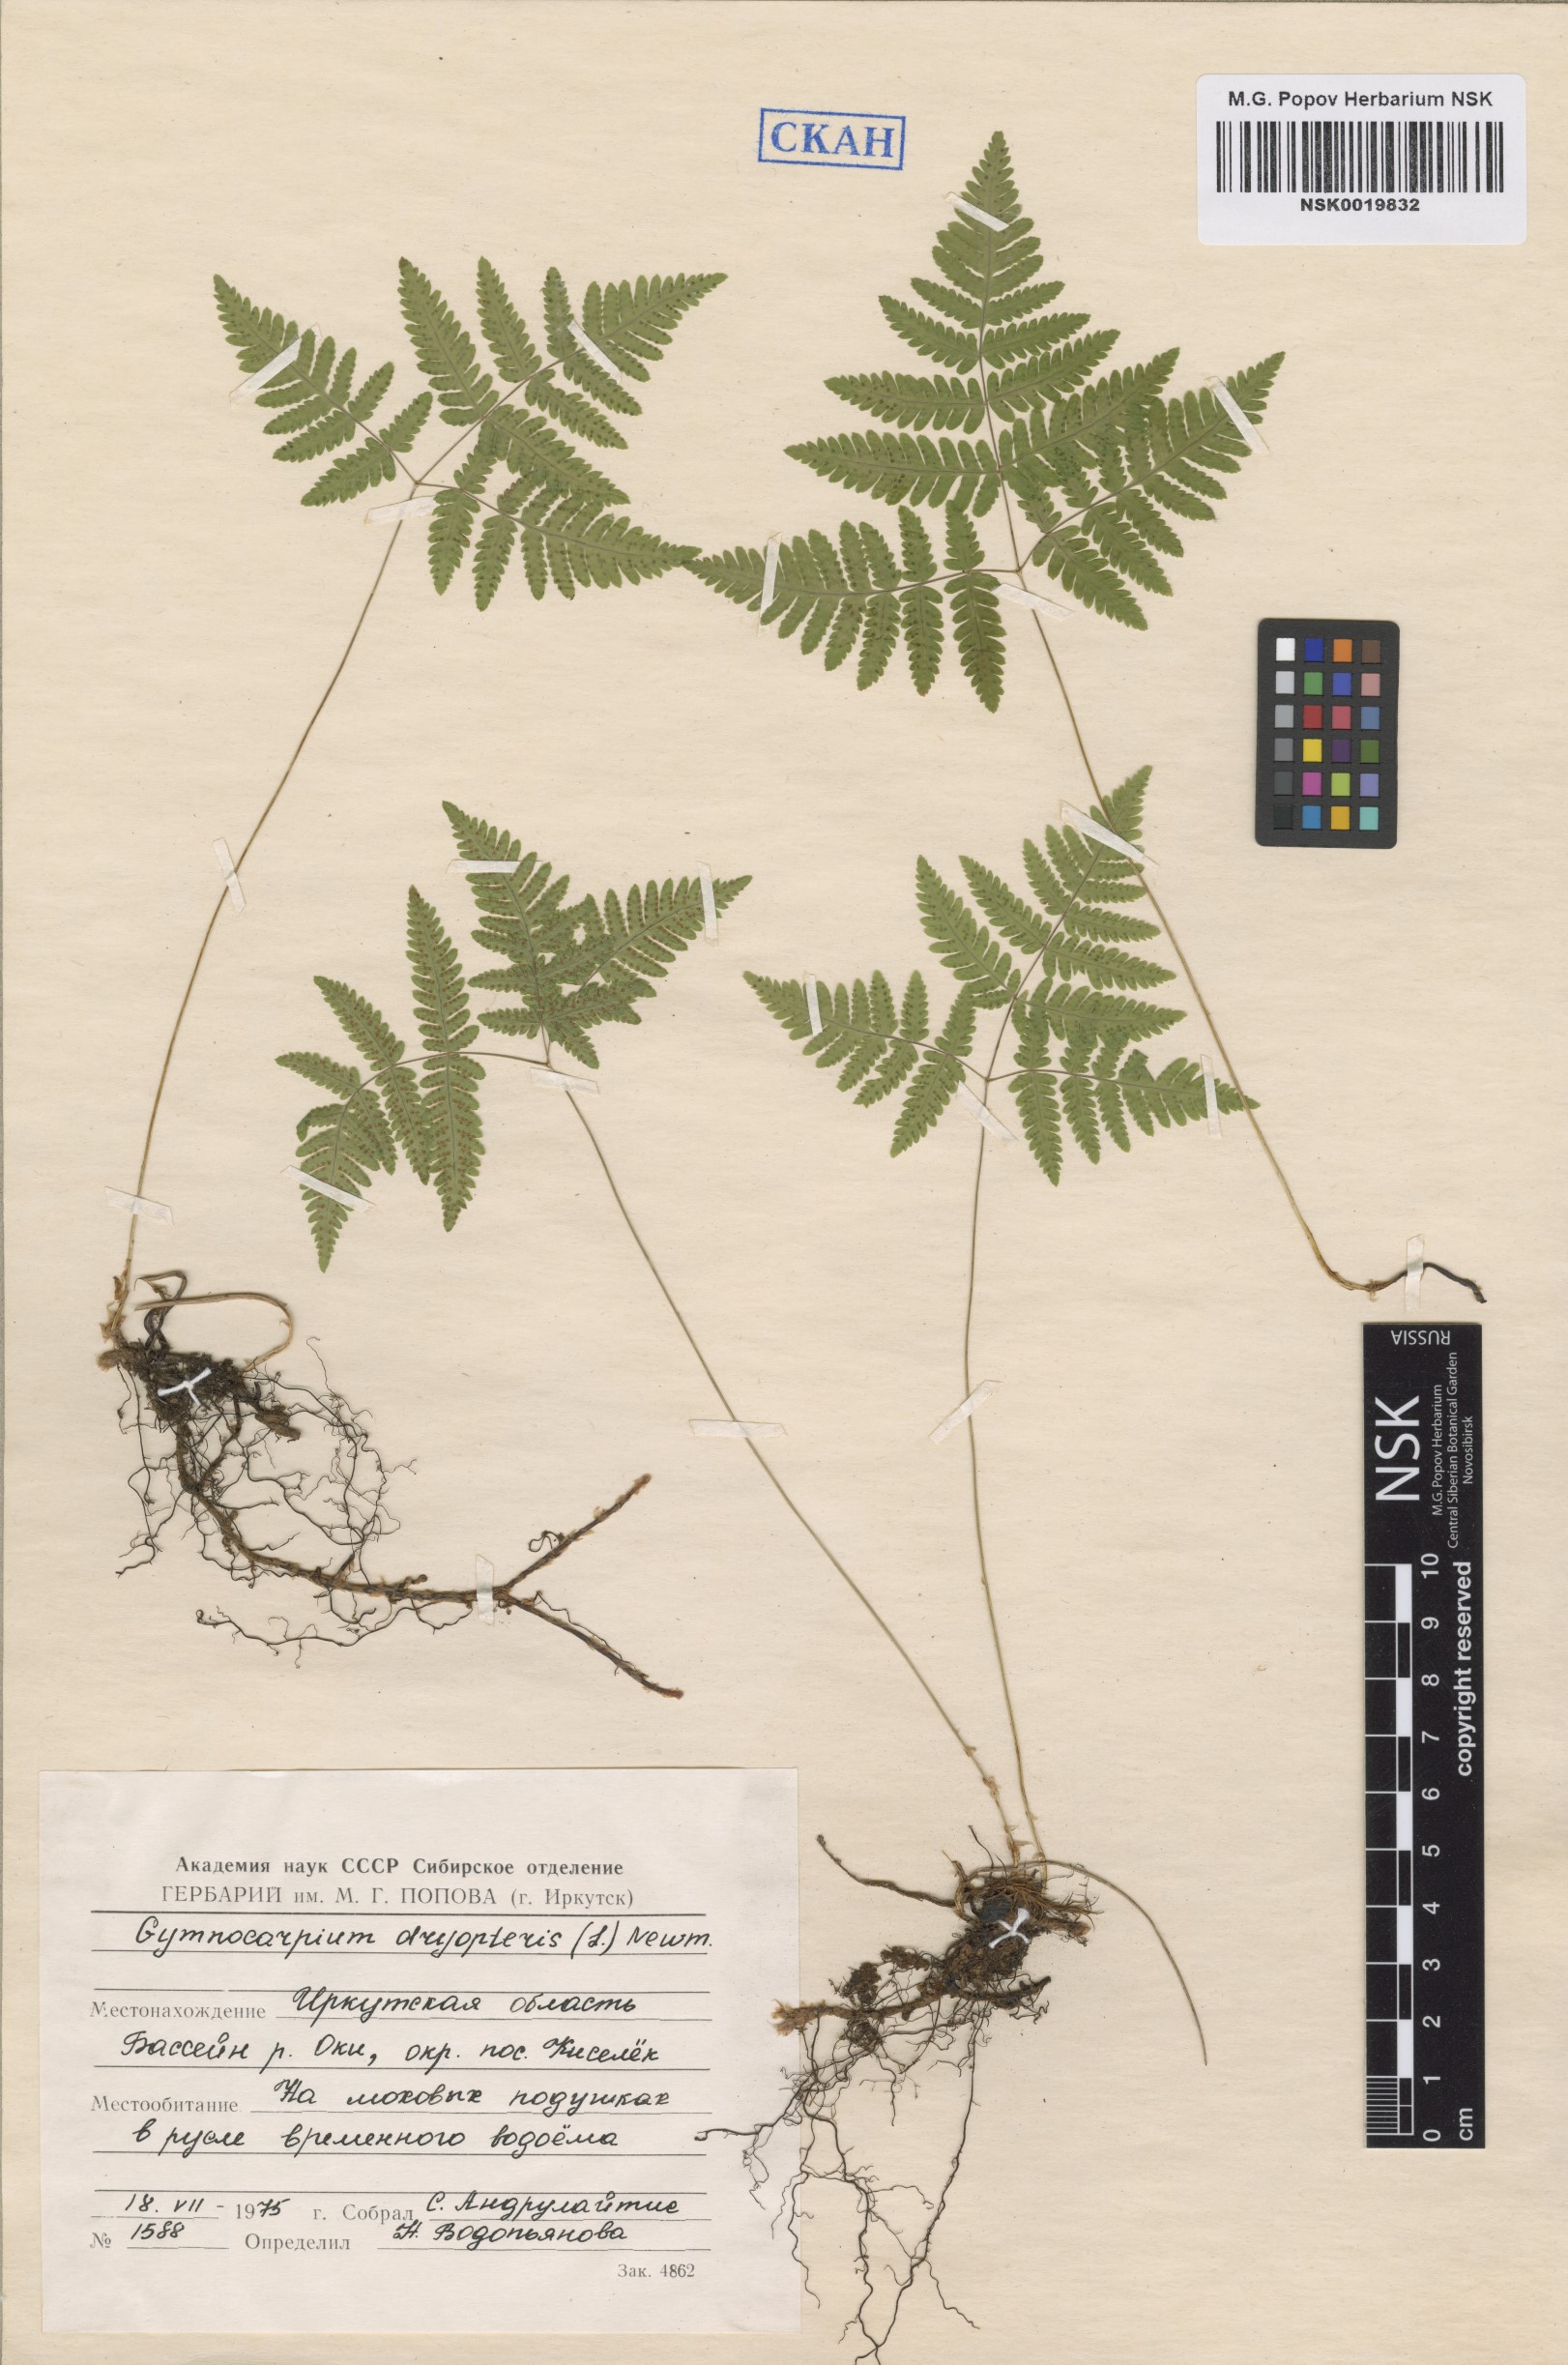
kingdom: Plantae
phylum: Tracheophyta
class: Polypodiopsida
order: Polypodiales
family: Cystopteridaceae
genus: Gymnocarpium
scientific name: Gymnocarpium dryopteris
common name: Oak fern
